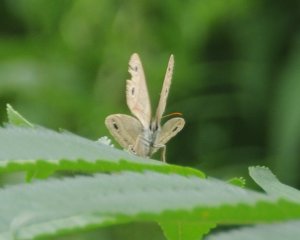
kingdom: Animalia
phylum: Arthropoda
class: Insecta
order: Lepidoptera
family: Nymphalidae
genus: Euptychia
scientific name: Euptychia cymela
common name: Little Wood Satyr
